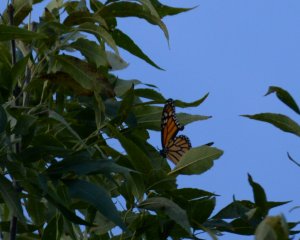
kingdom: Animalia
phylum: Arthropoda
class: Insecta
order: Lepidoptera
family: Nymphalidae
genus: Danaus
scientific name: Danaus plexippus
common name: Monarch
